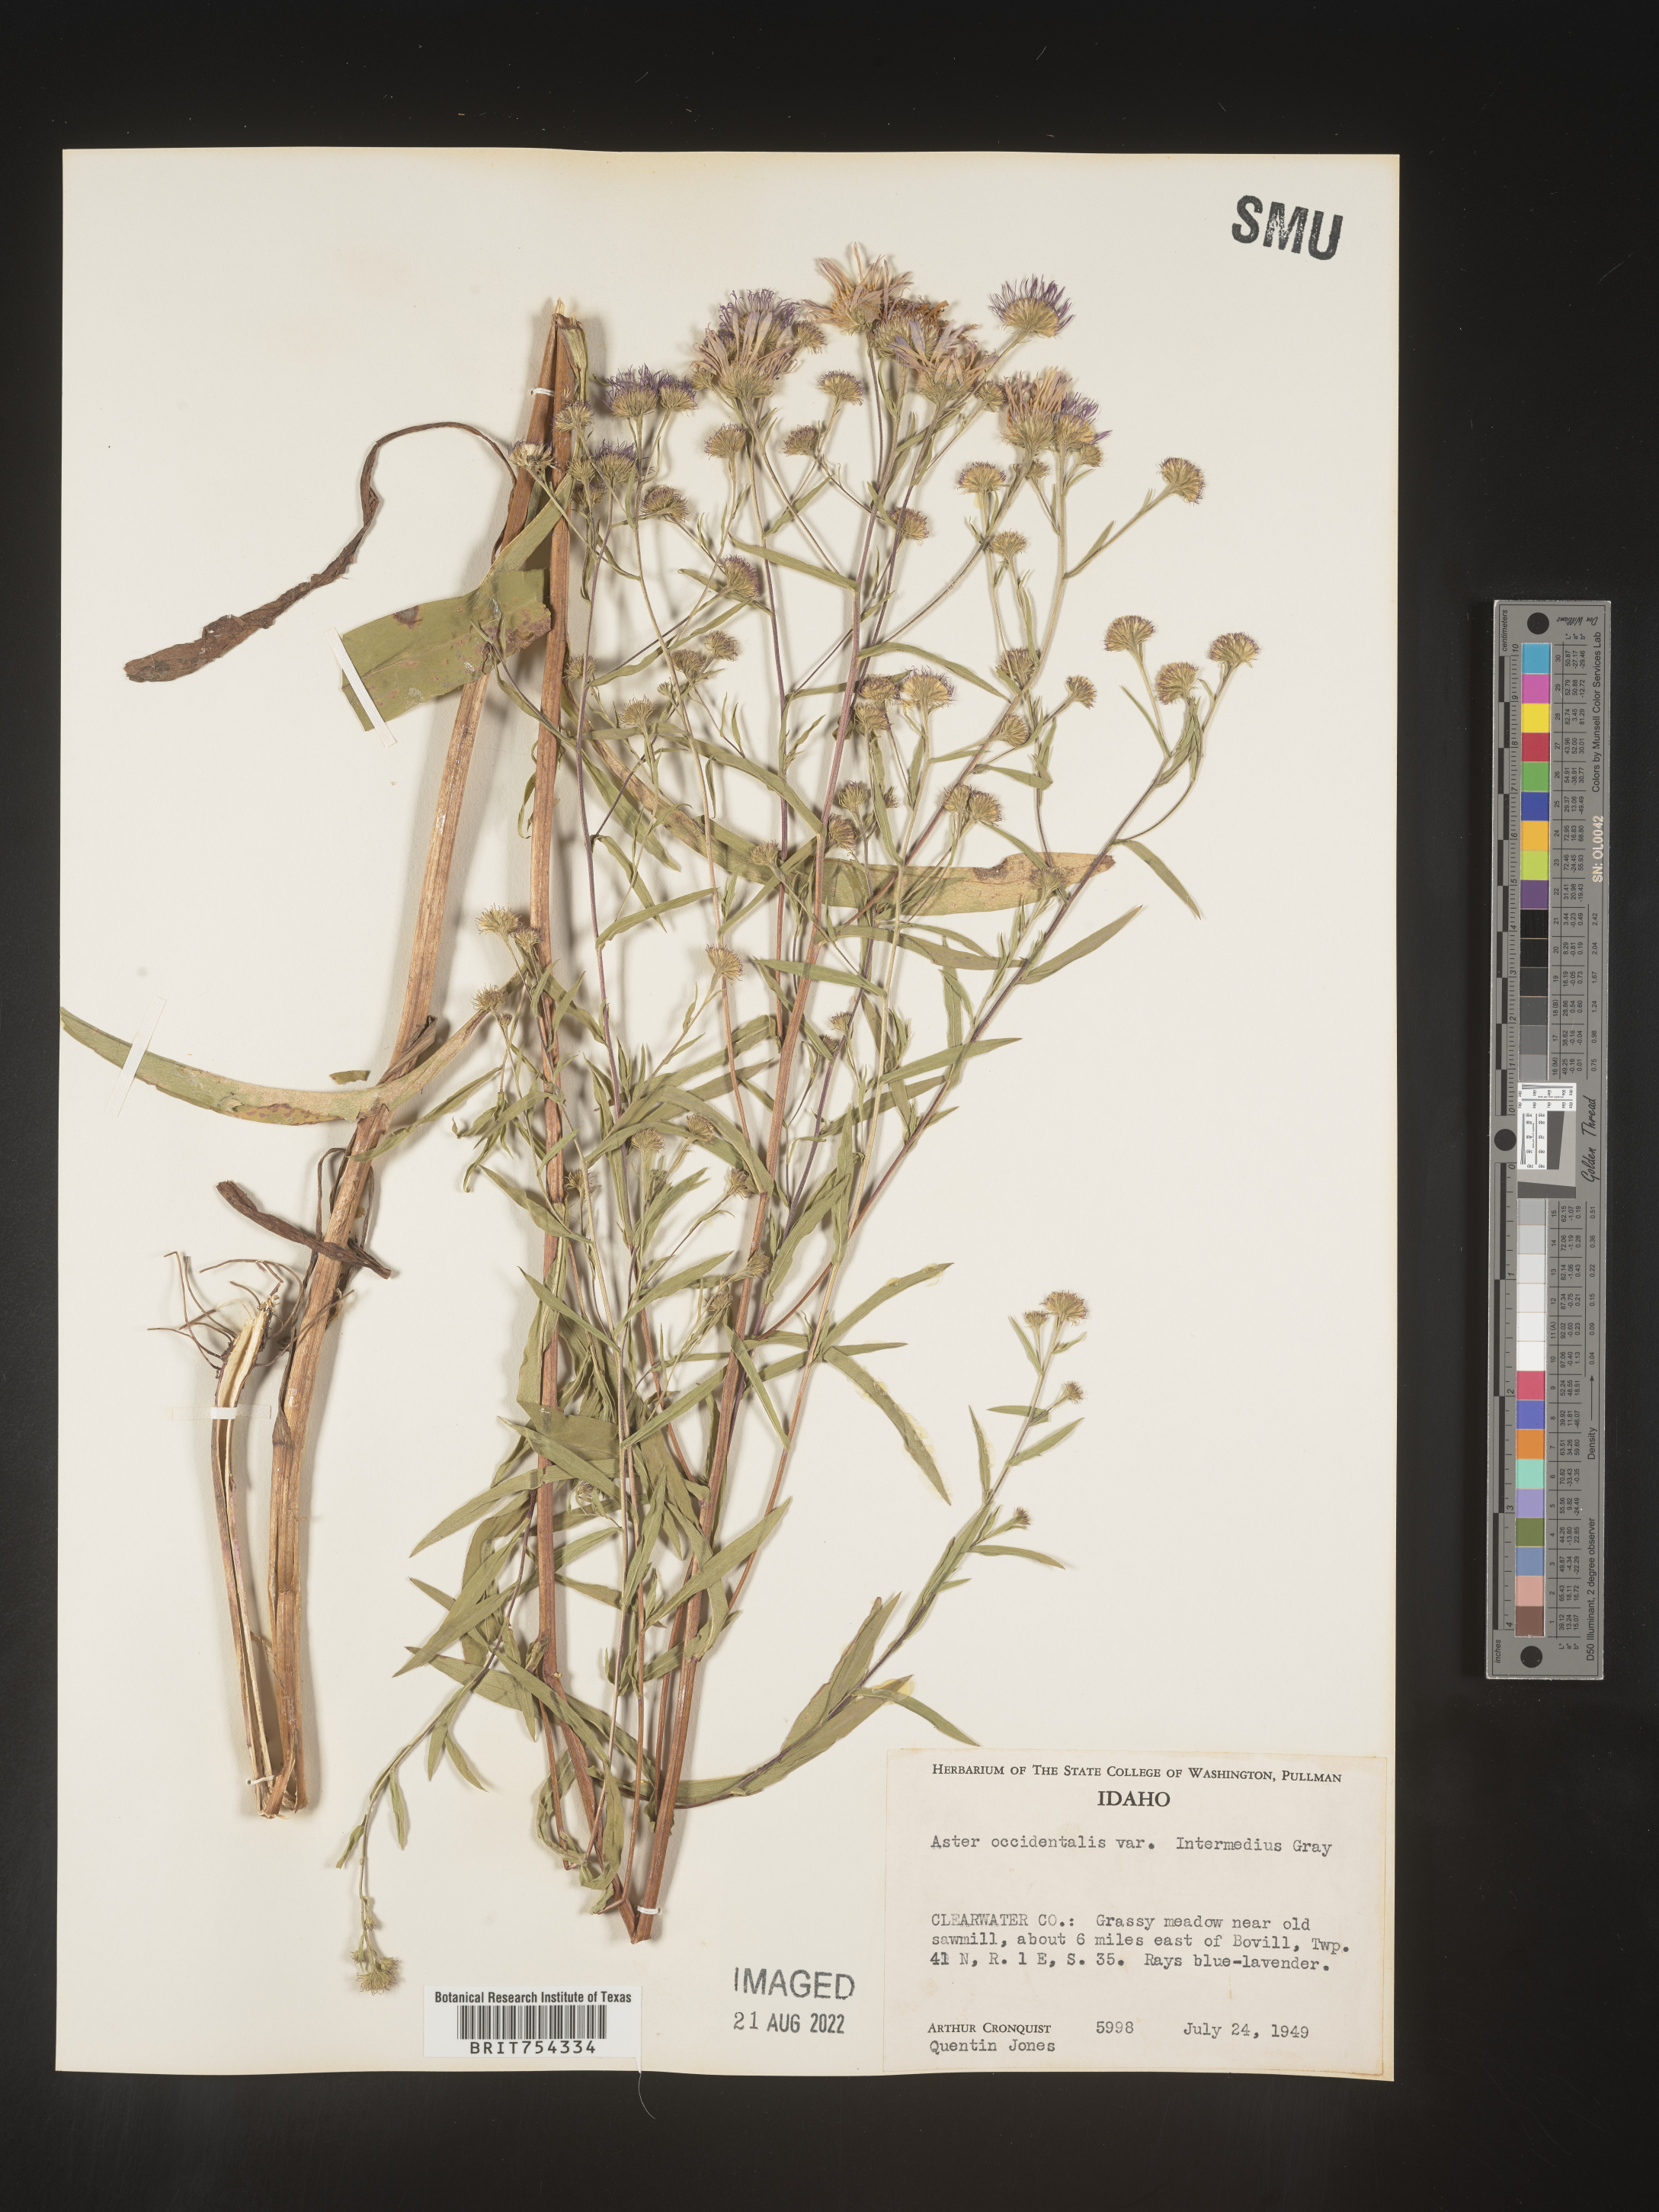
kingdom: Plantae
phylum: Tracheophyta
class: Magnoliopsida
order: Asterales
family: Asteraceae
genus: Symphyotrichum
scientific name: Symphyotrichum spathulatum
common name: Western mountain aster
